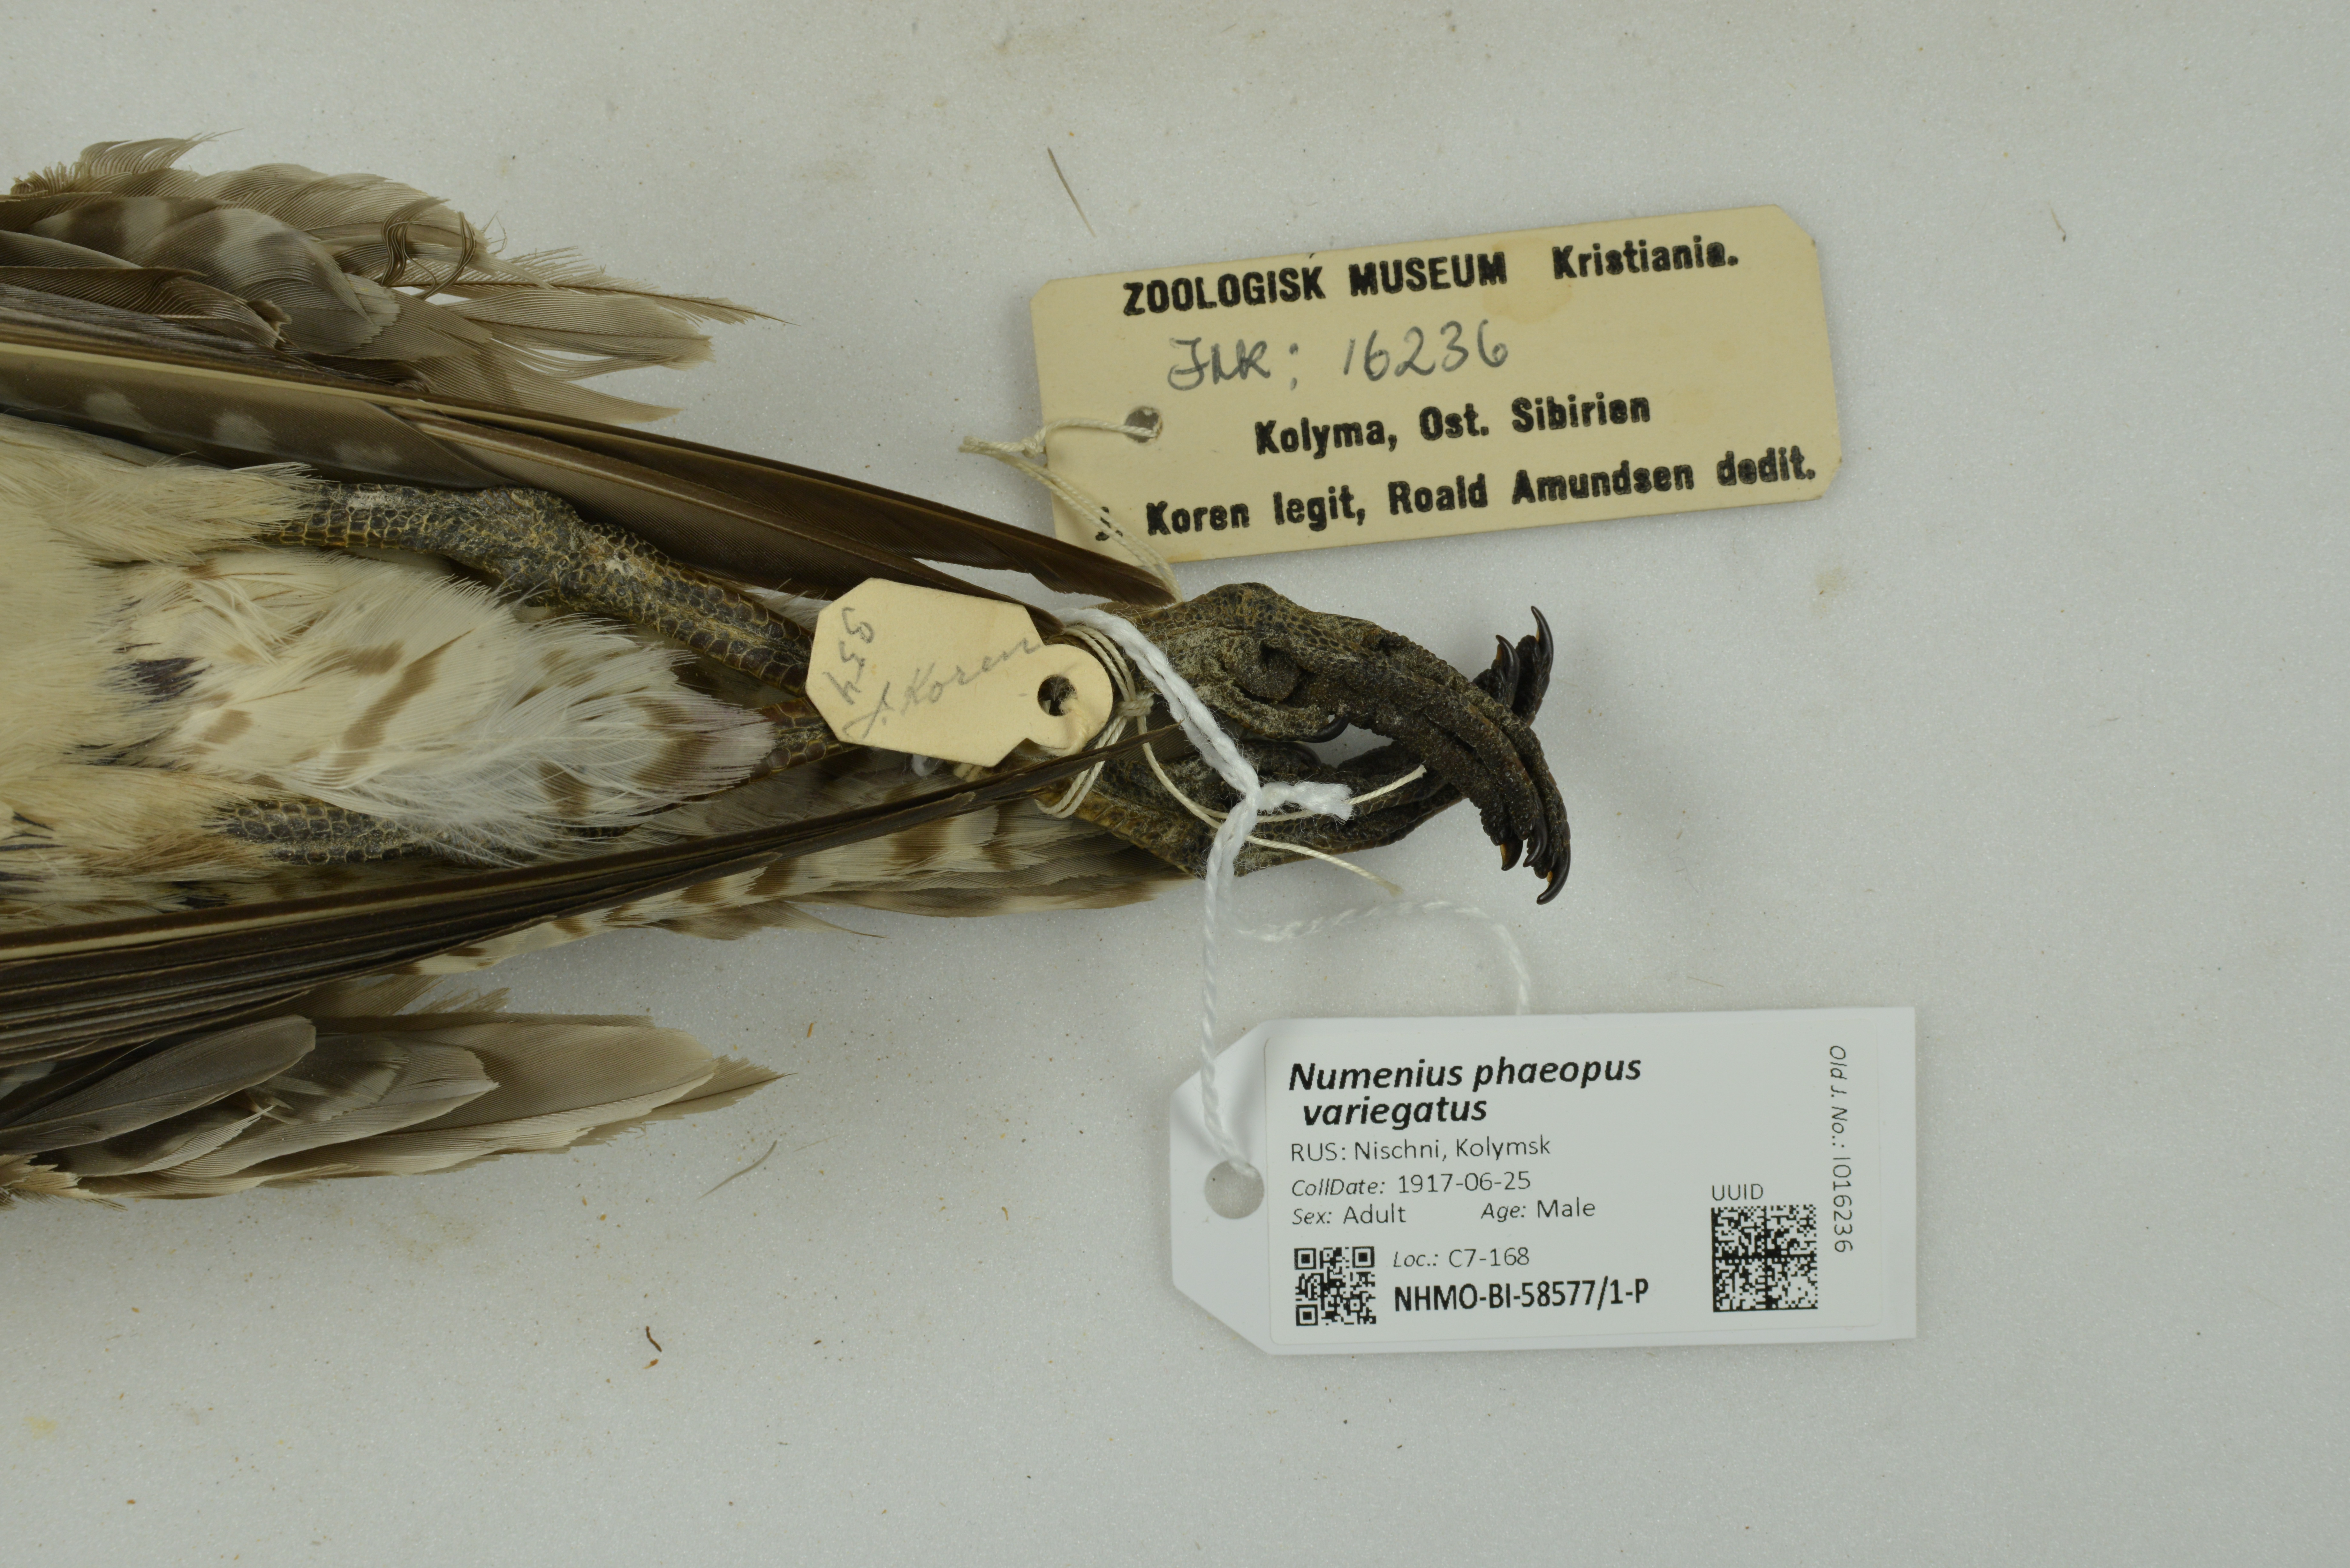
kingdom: Animalia
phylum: Chordata
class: Aves
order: Charadriiformes
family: Scolopacidae
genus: Numenius
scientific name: Numenius phaeopus
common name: Whimbrel
